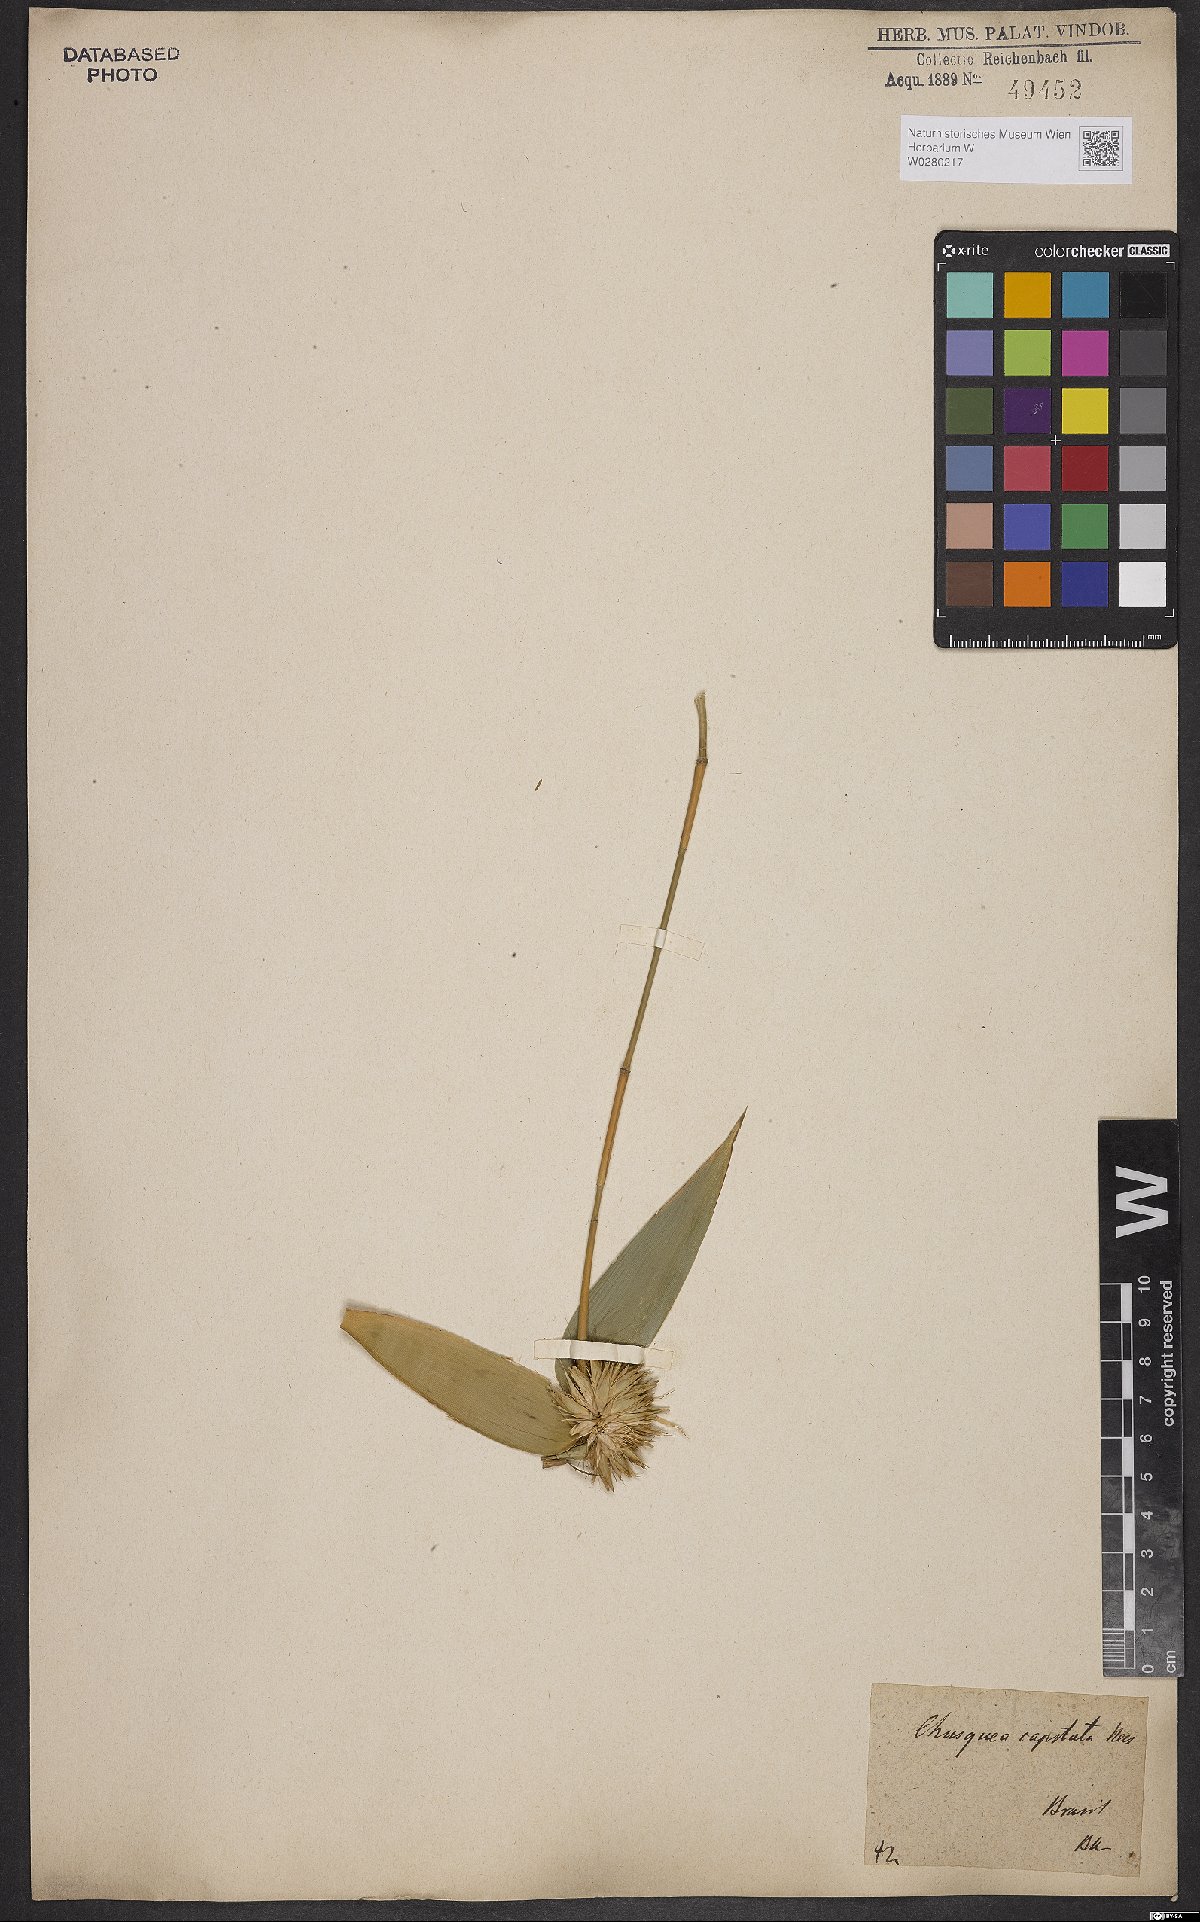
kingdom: Plantae
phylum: Tracheophyta
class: Liliopsida
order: Poales
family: Poaceae
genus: Chusquea
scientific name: Chusquea capitata
